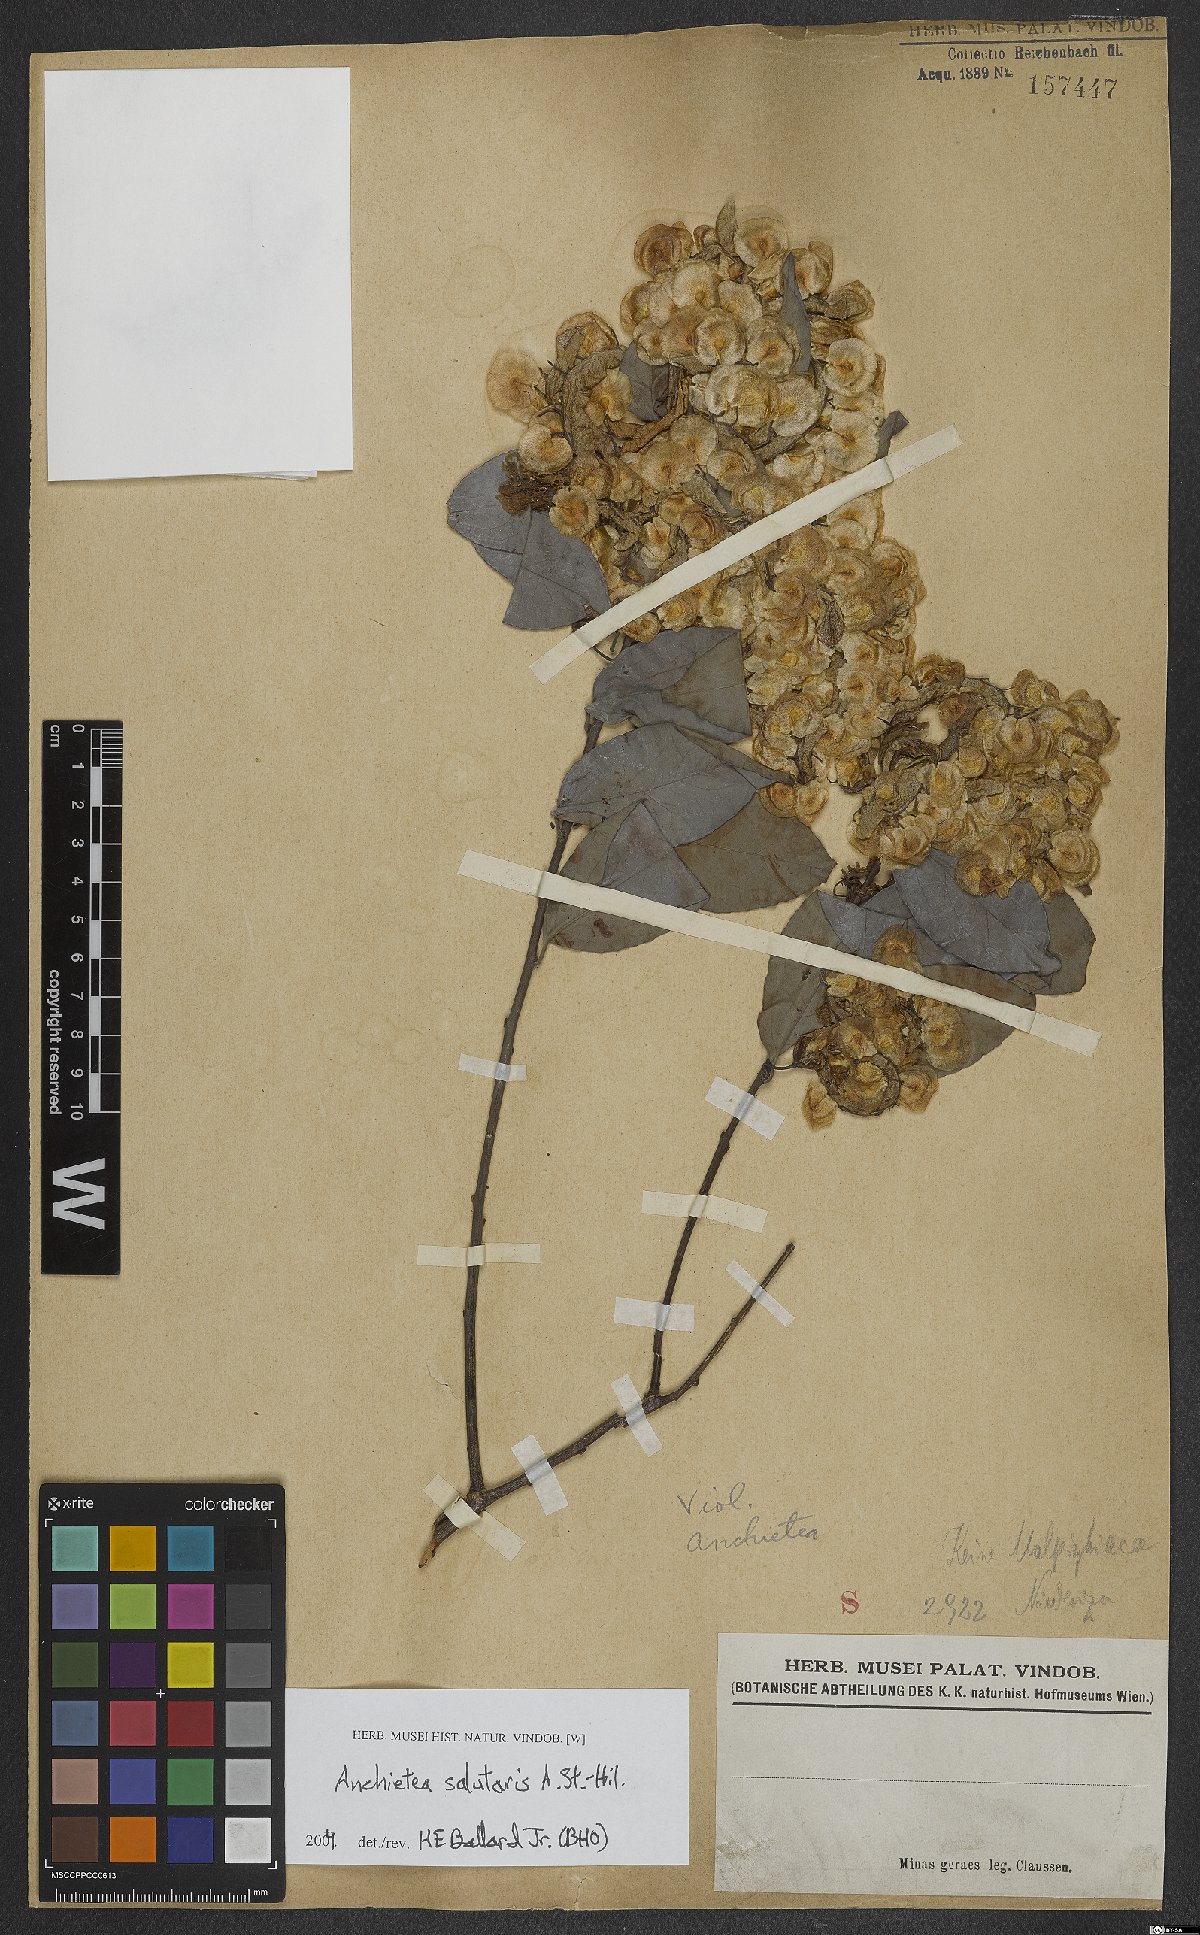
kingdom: Plantae
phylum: Tracheophyta
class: Magnoliopsida
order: Malpighiales
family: Violaceae
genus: Anchietea
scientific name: Anchietea pyrifolia
